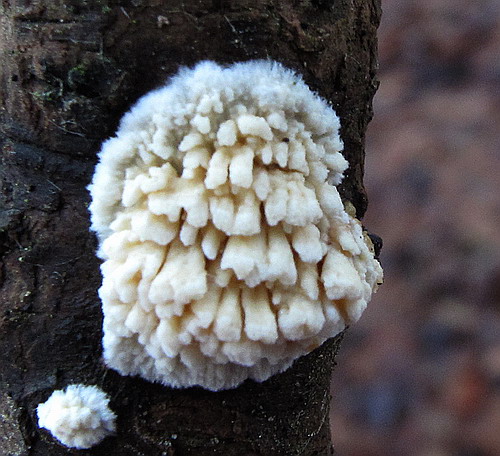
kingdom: Fungi
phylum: Basidiomycota
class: Agaricomycetes
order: Hymenochaetales
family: Schizoporaceae
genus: Xylodon
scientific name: Xylodon radula
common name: grovtandet kalkskind
